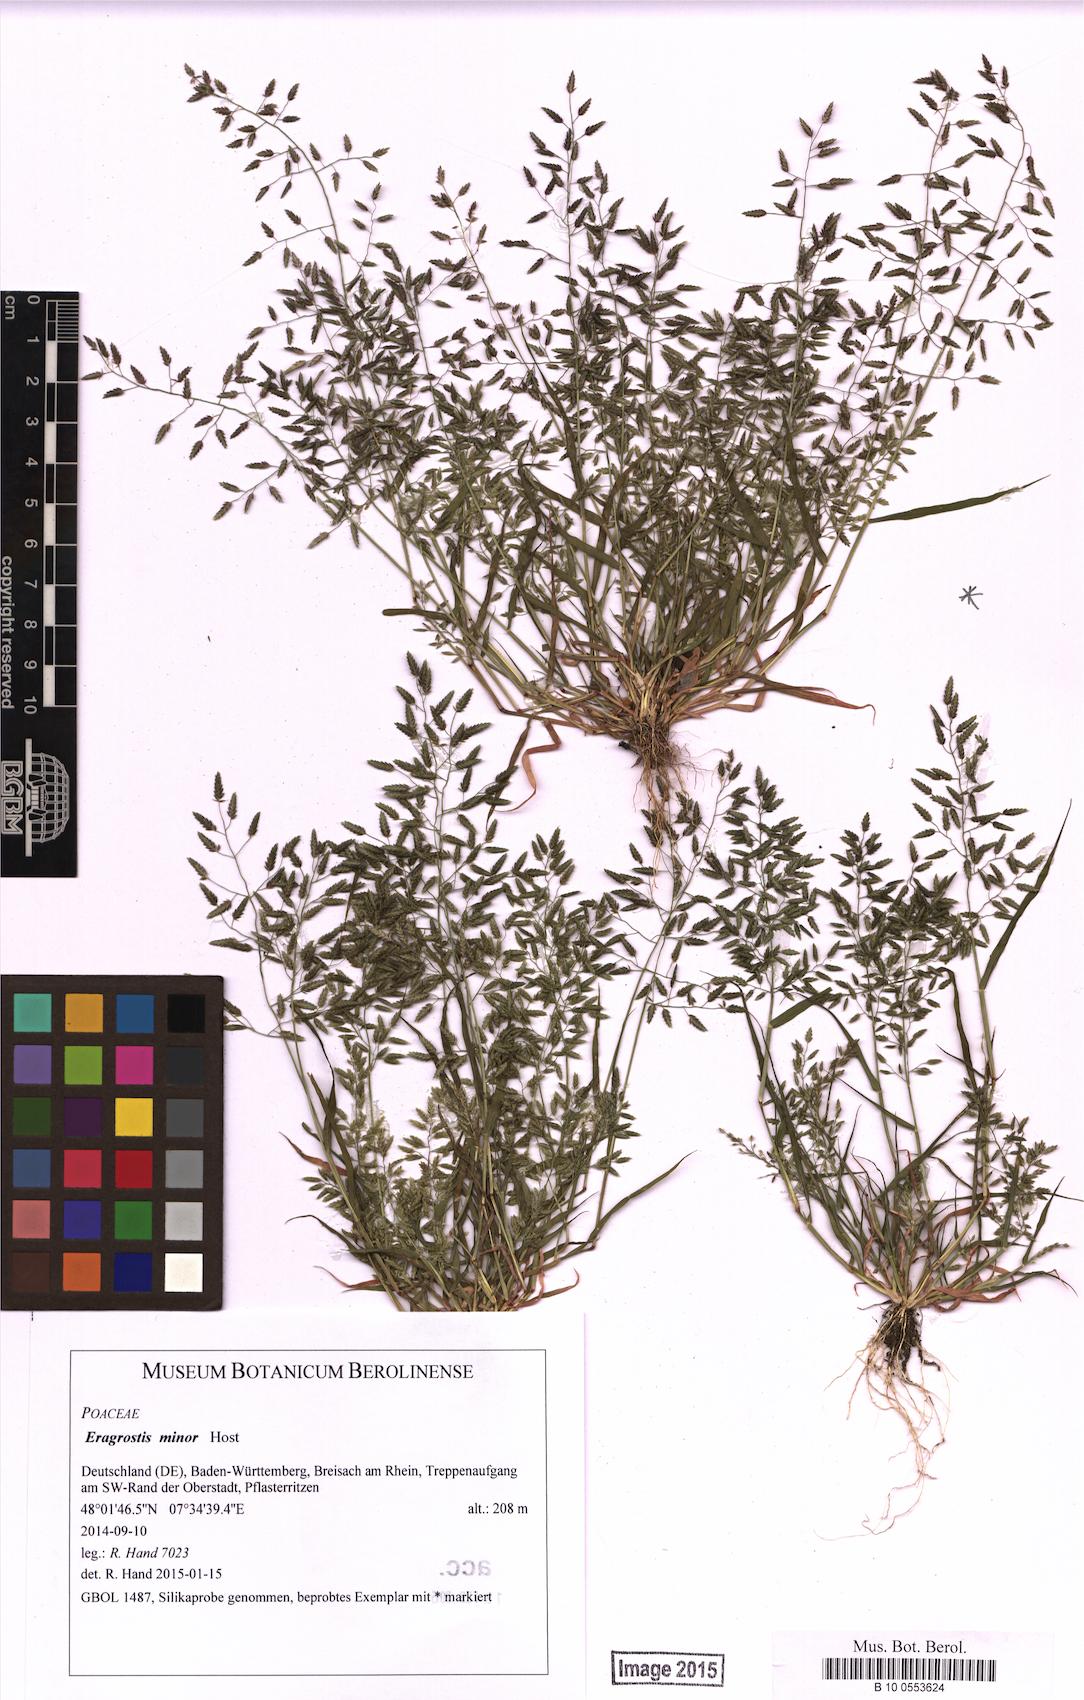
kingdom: Plantae
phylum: Tracheophyta
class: Liliopsida
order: Poales
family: Poaceae
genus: Eragrostis
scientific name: Eragrostis minor
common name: Small love-grass
